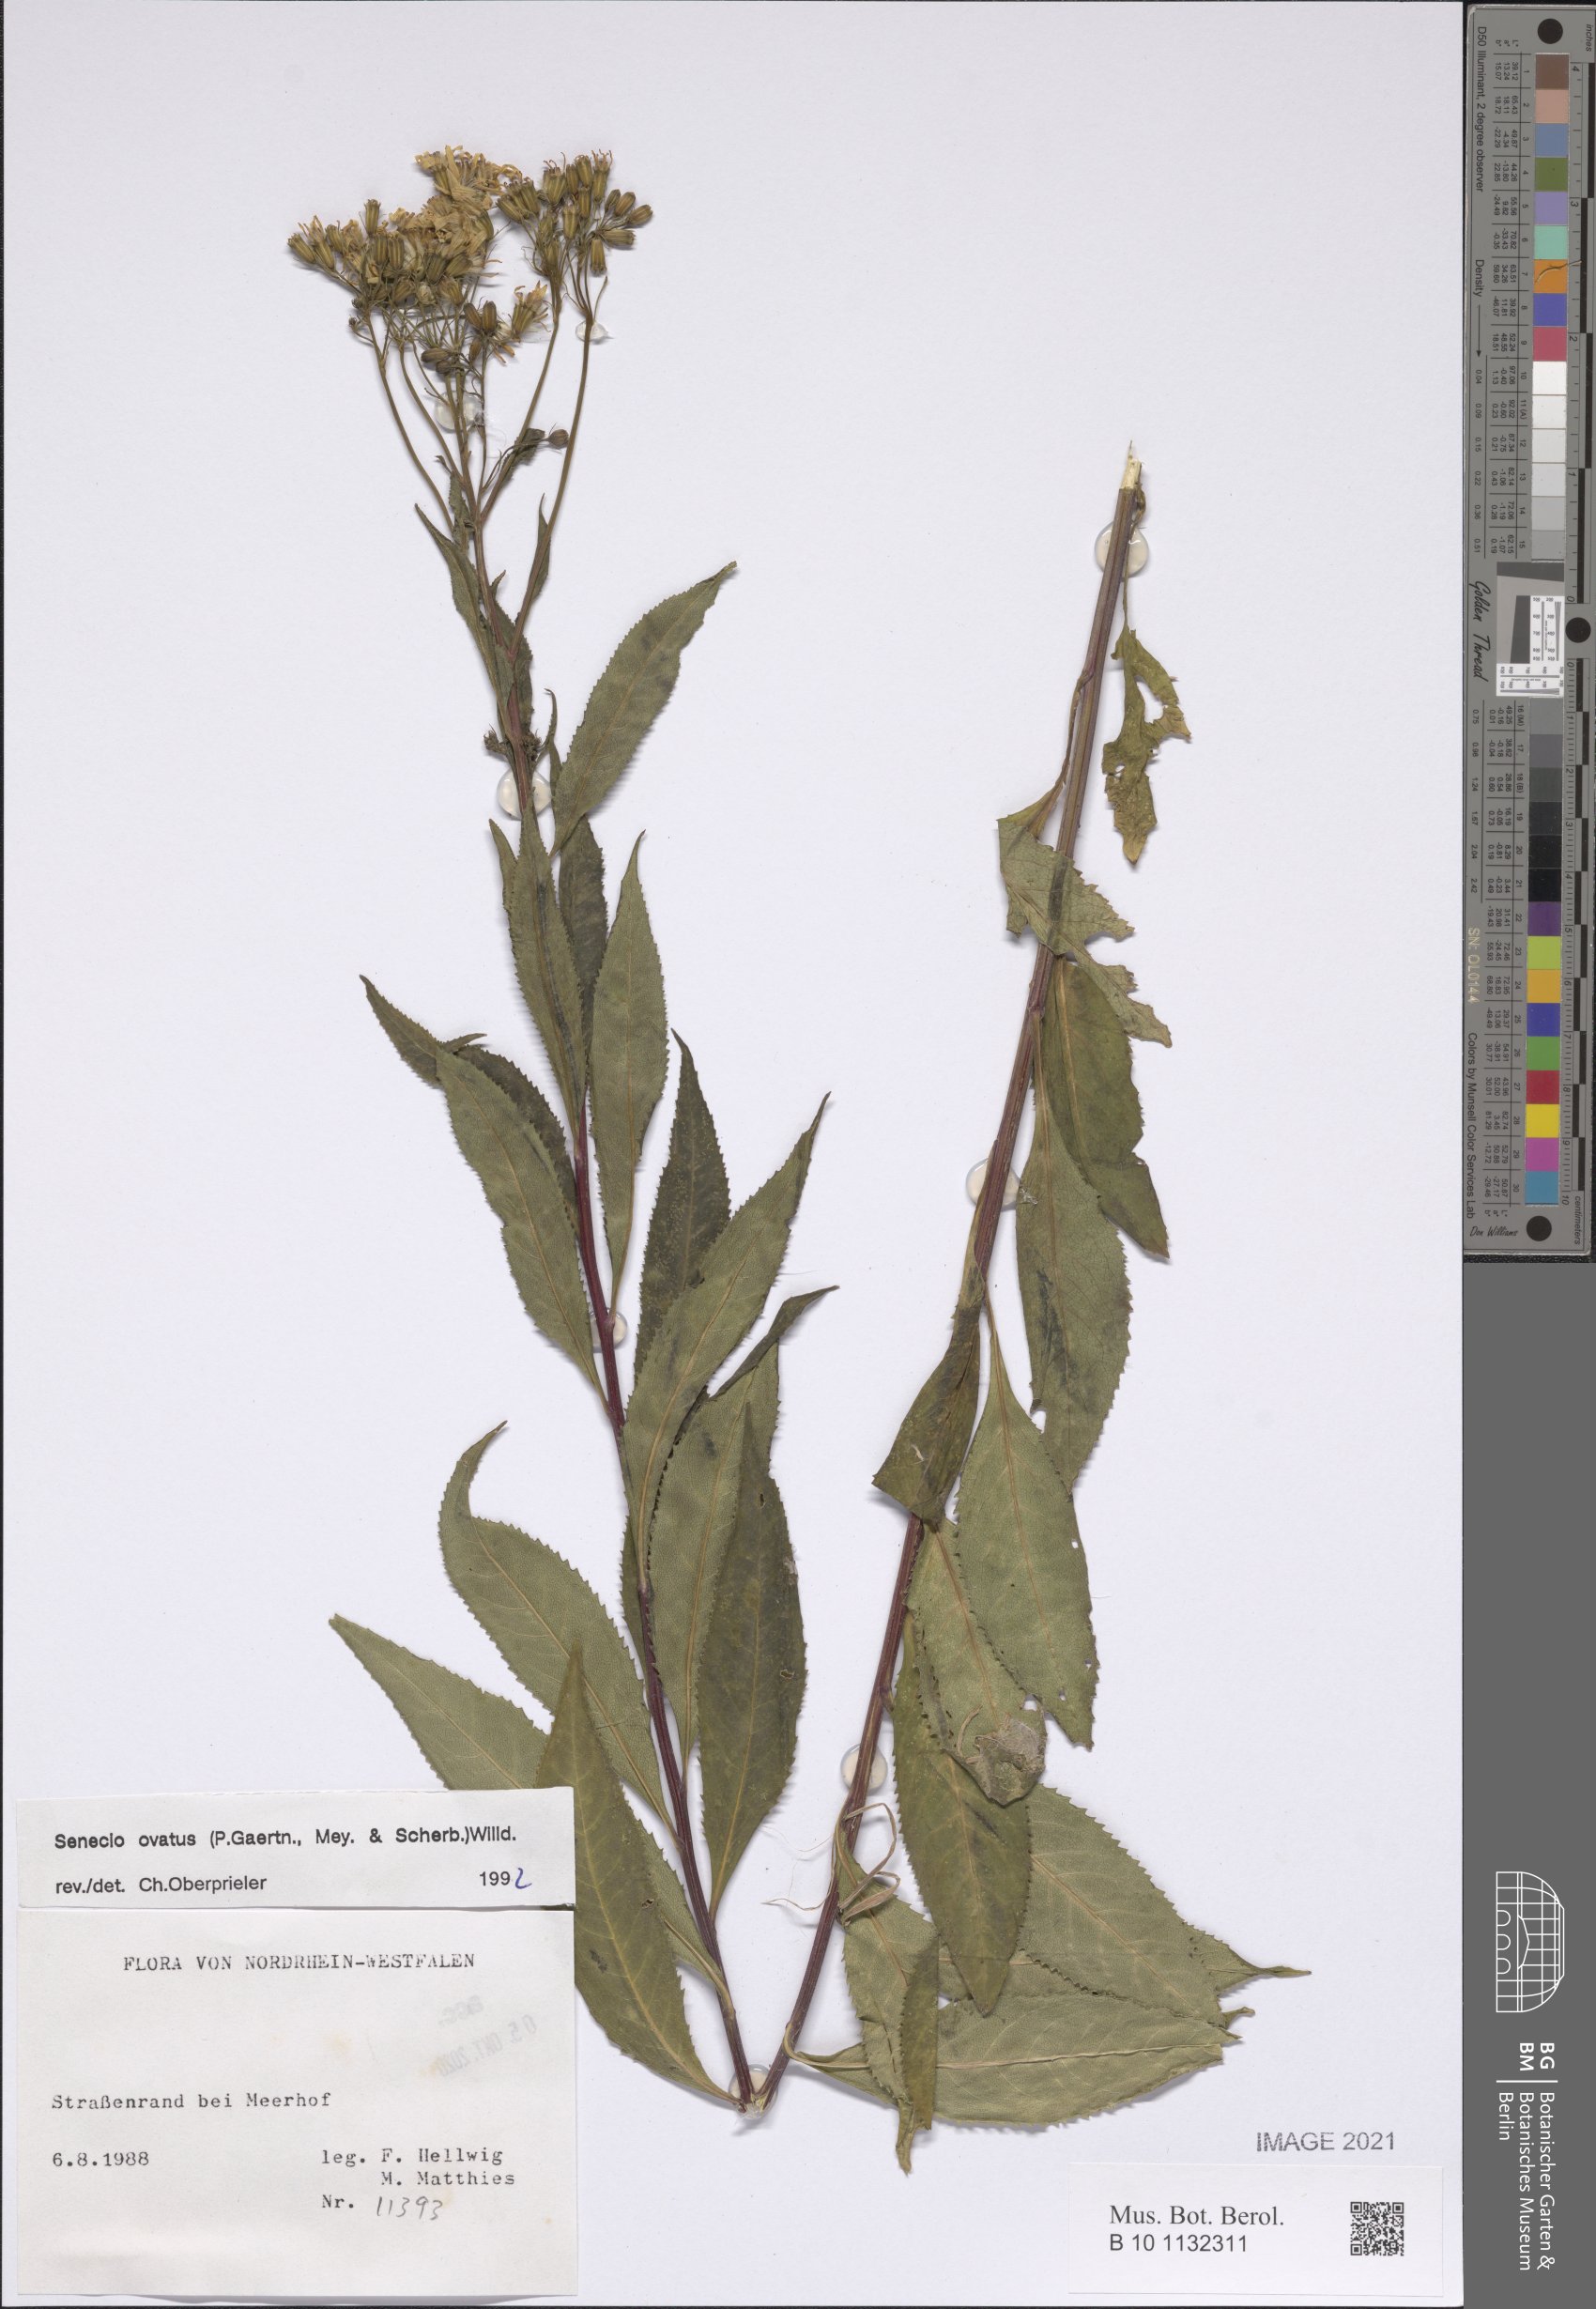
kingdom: Plantae
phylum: Tracheophyta
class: Magnoliopsida
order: Asterales
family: Asteraceae
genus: Senecio
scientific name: Senecio ovatus
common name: Wood ragwort
